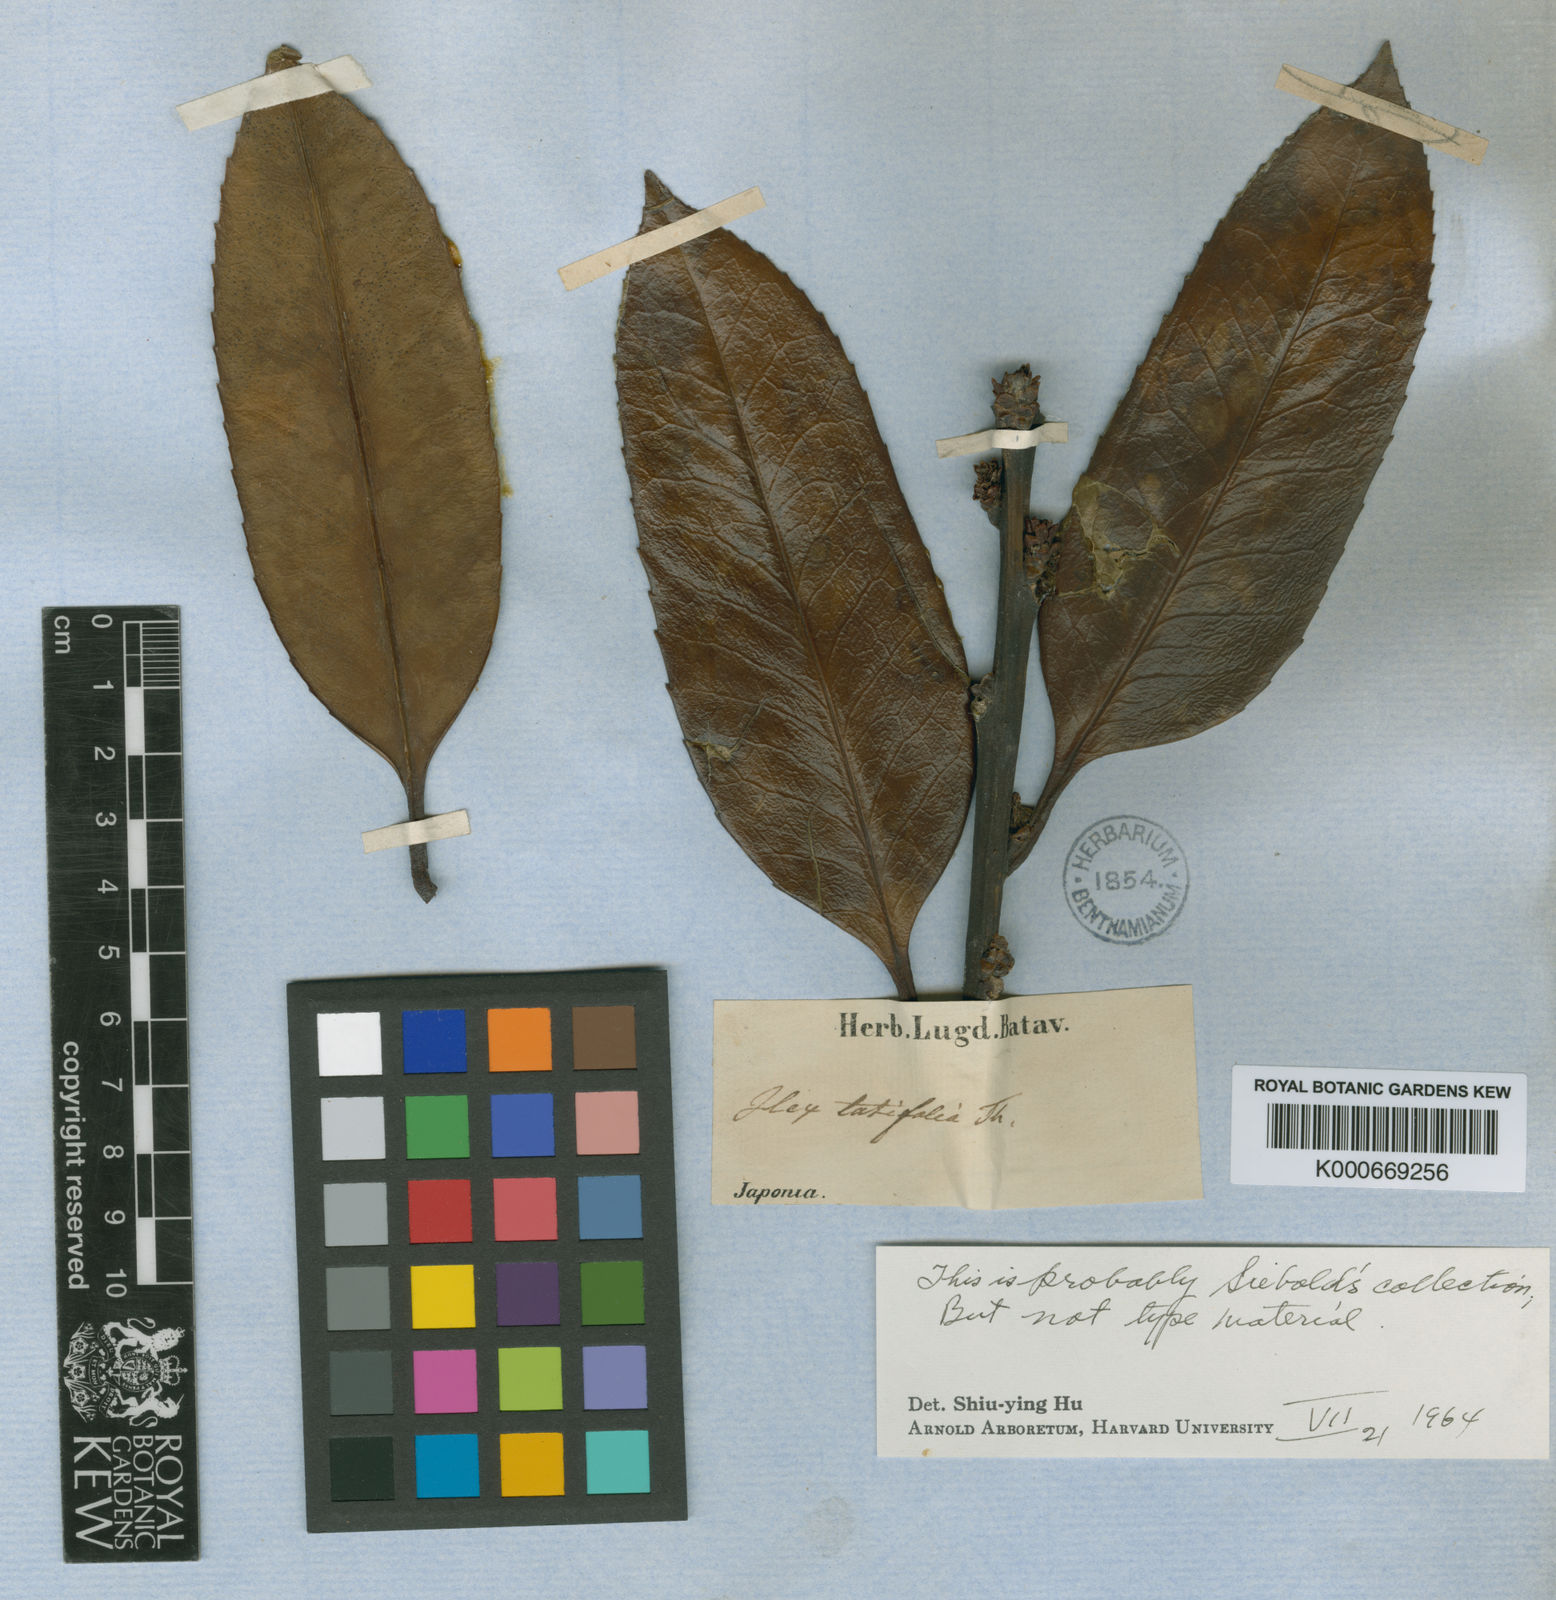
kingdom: Plantae
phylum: Tracheophyta
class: Magnoliopsida
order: Aquifoliales
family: Aquifoliaceae
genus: Ilex
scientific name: Ilex latifolia
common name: Tarajo holly
